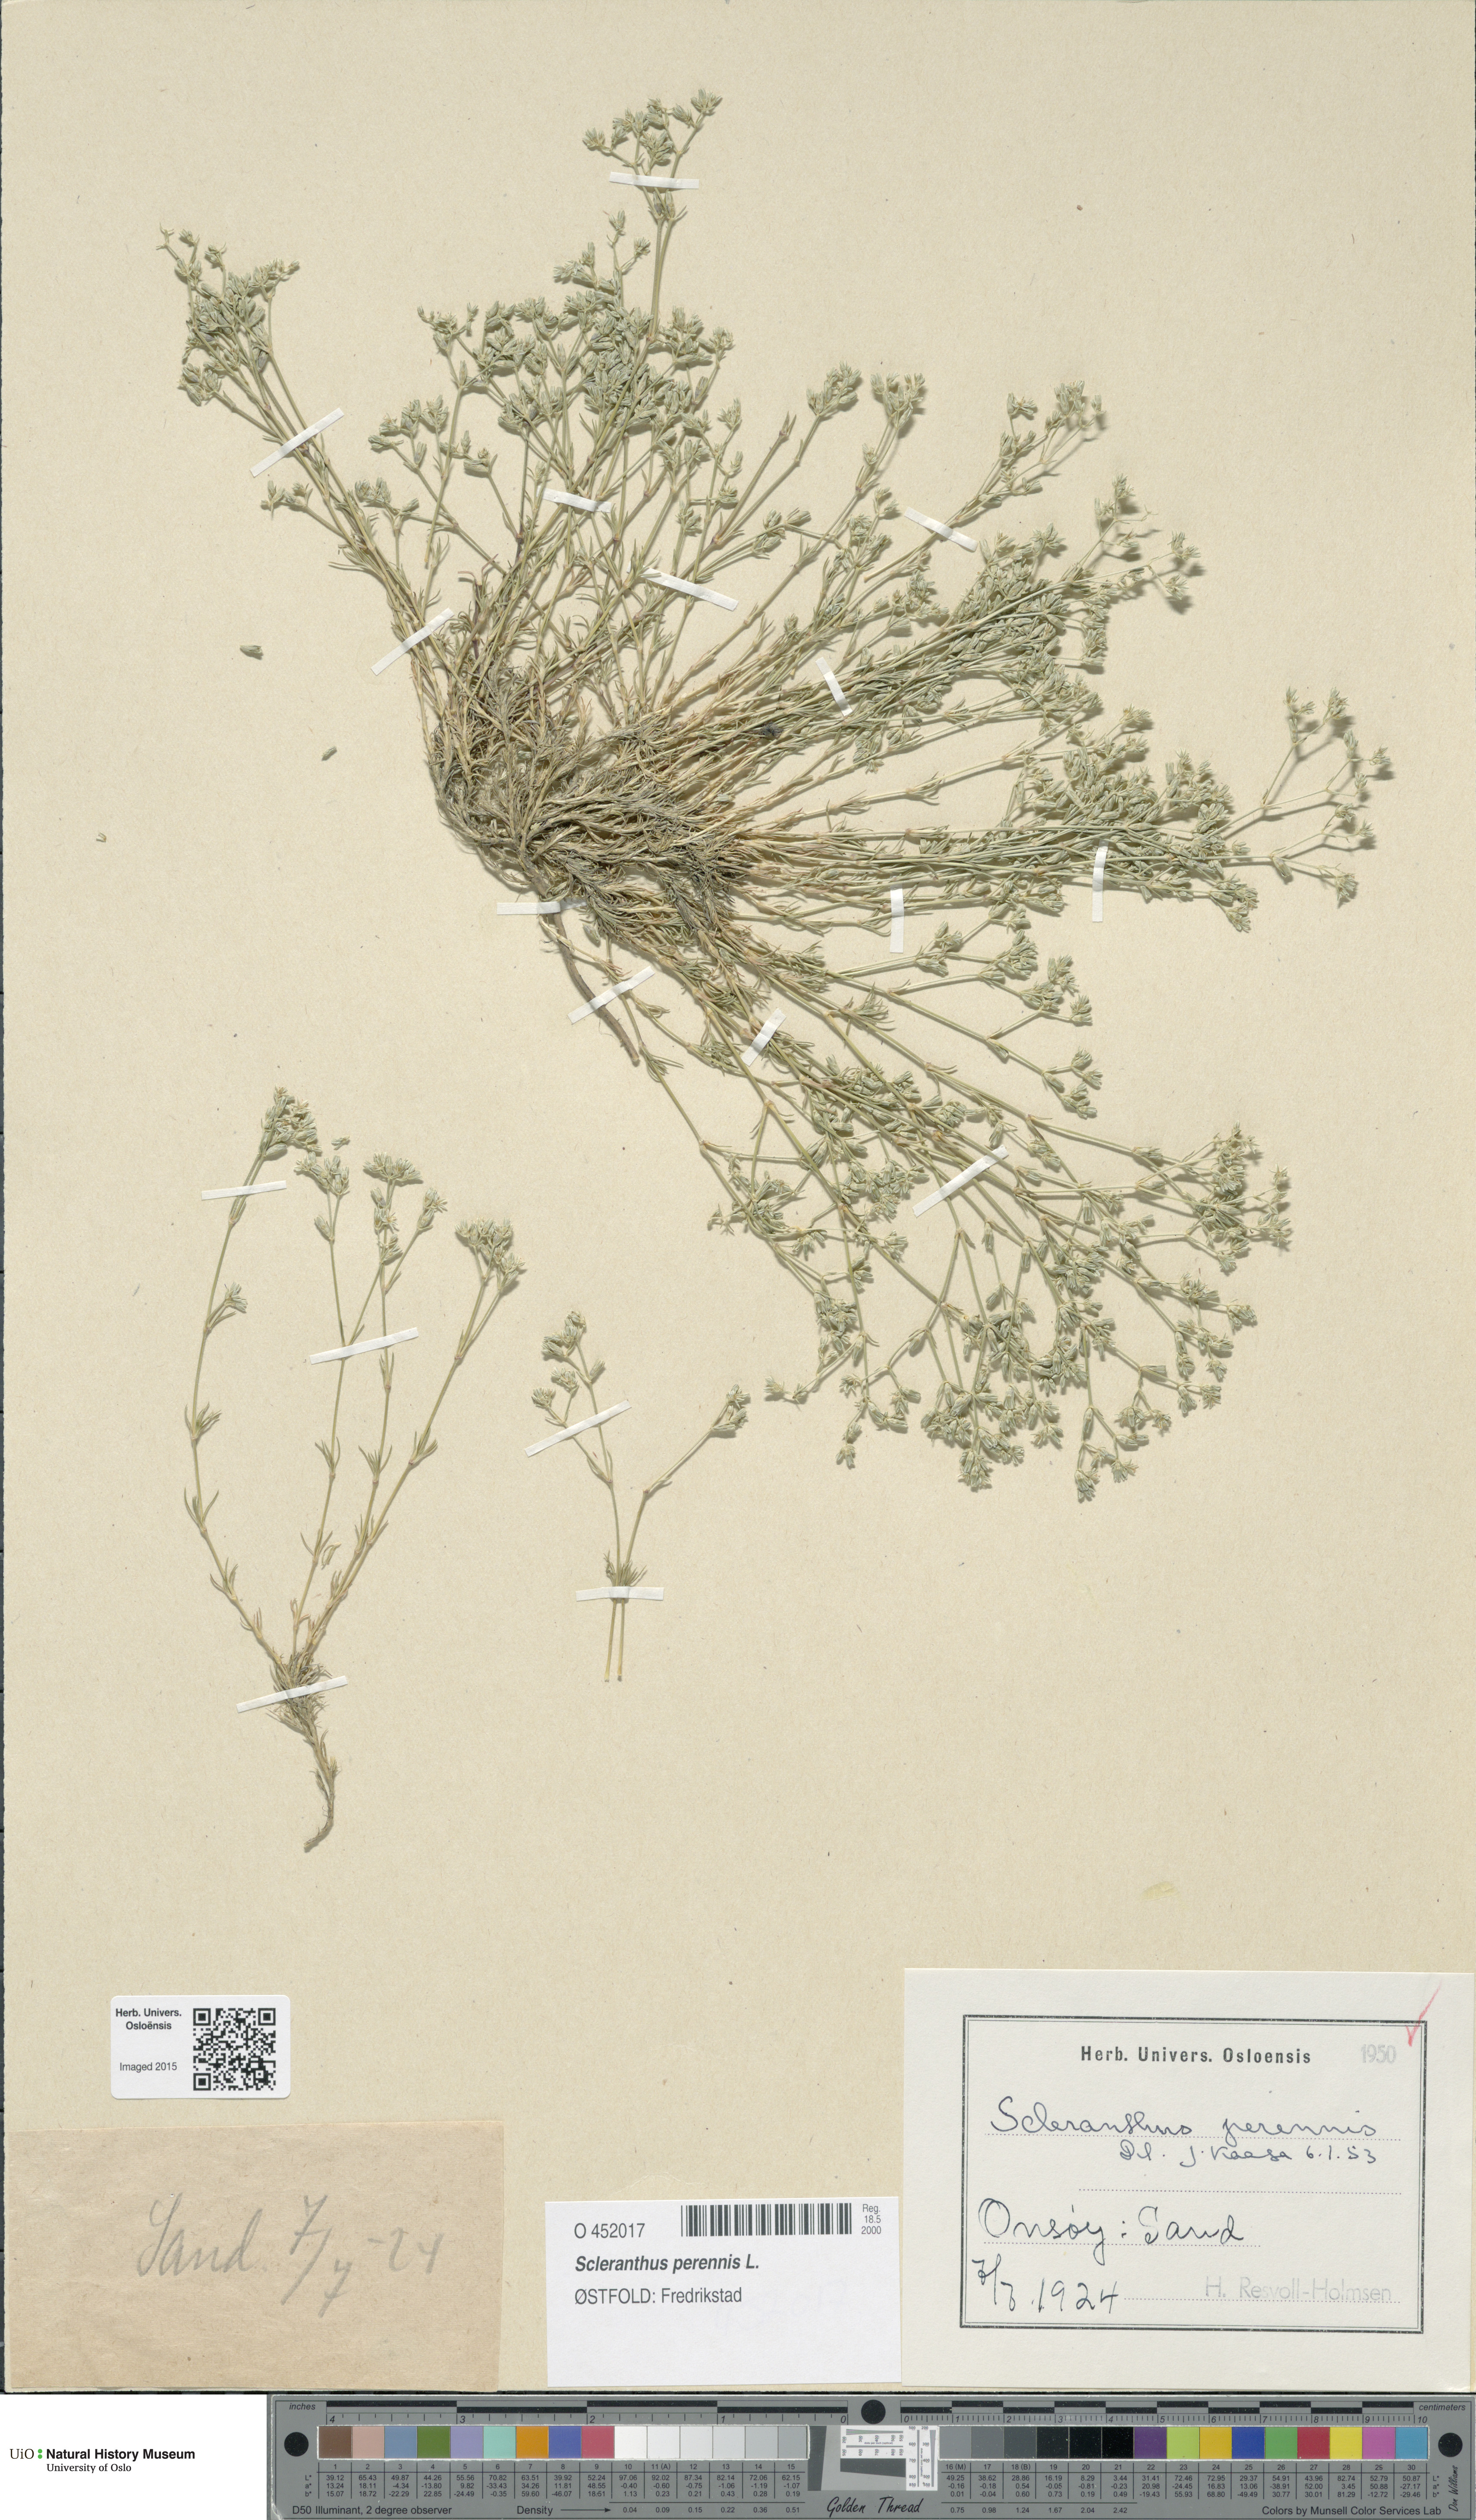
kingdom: Plantae
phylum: Tracheophyta
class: Magnoliopsida
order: Caryophyllales
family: Caryophyllaceae
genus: Scleranthus
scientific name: Scleranthus perennis
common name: Perennial knawel
